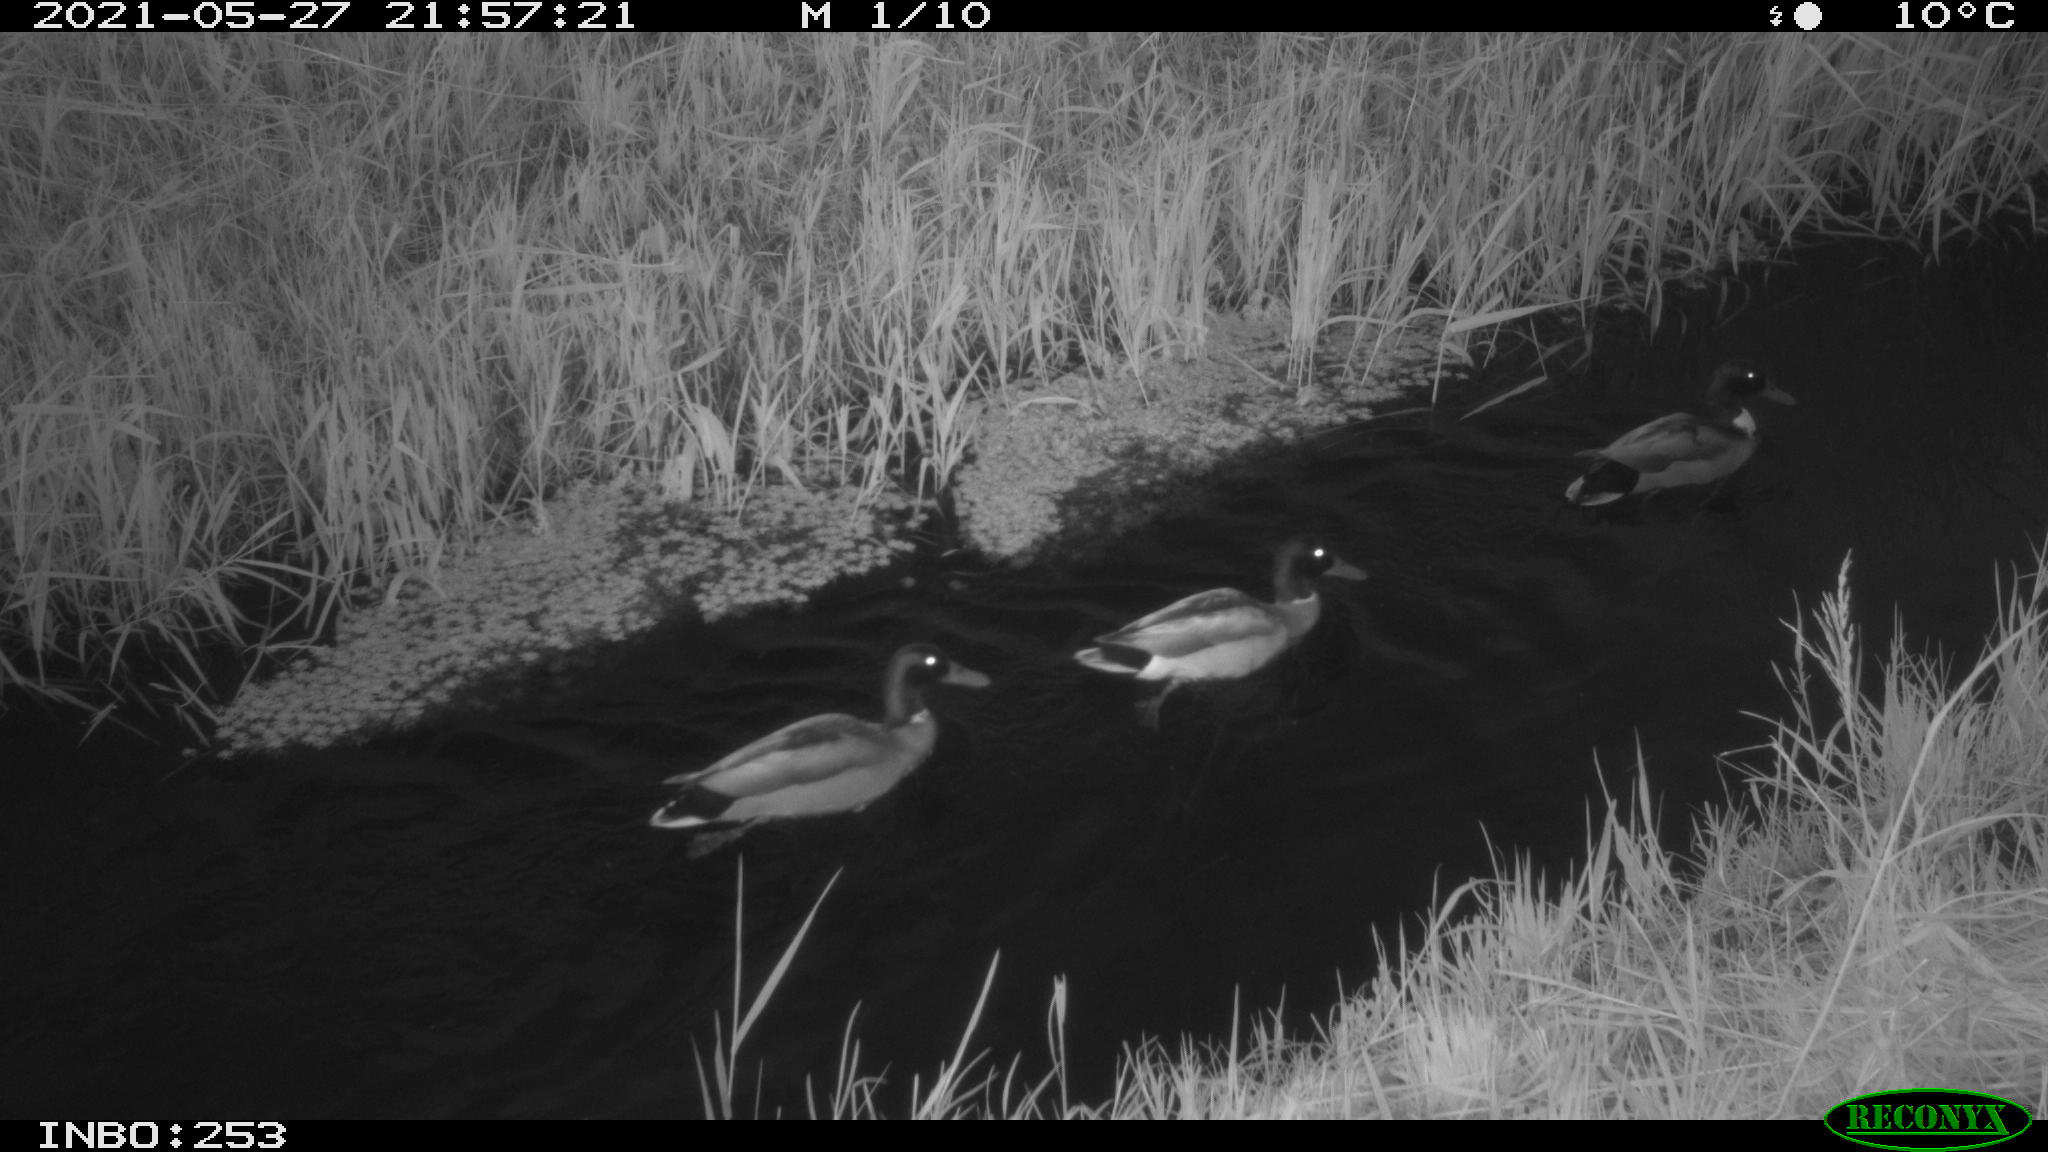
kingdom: Animalia
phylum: Chordata
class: Aves
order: Anseriformes
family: Anatidae
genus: Anas
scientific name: Anas
